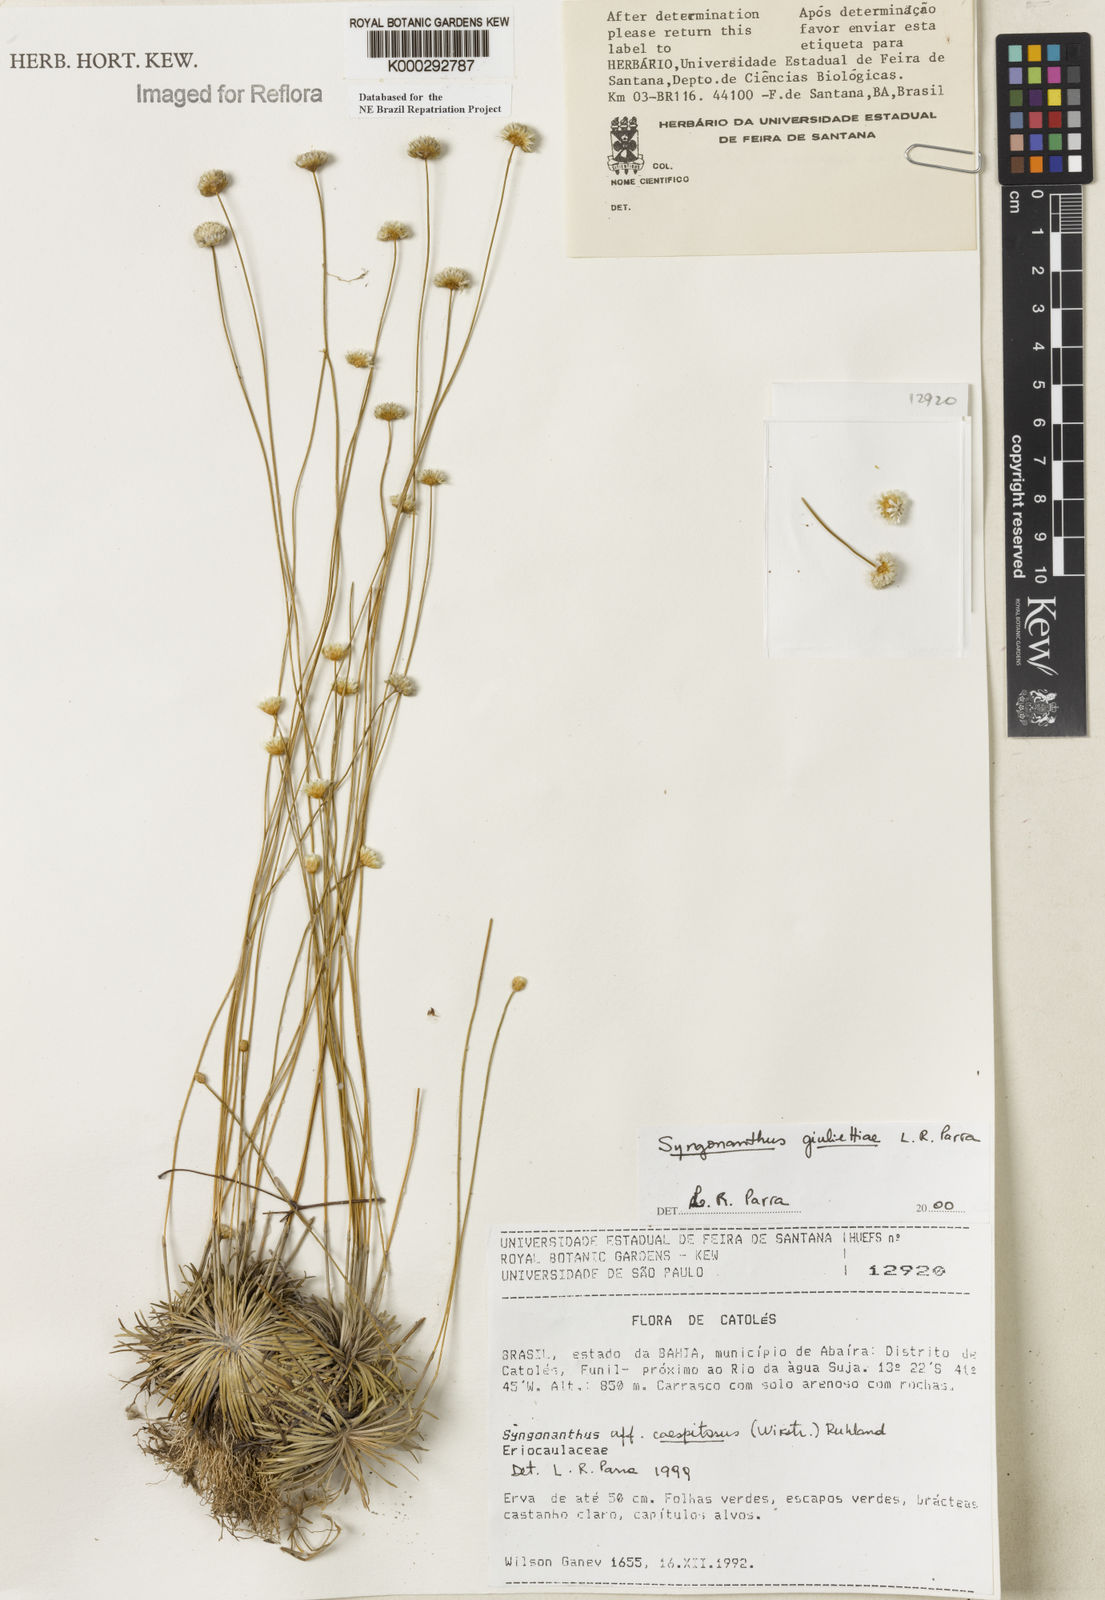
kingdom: Plantae
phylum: Tracheophyta
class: Liliopsida
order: Poales
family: Eriocaulaceae
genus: Syngonanthus
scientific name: Syngonanthus
